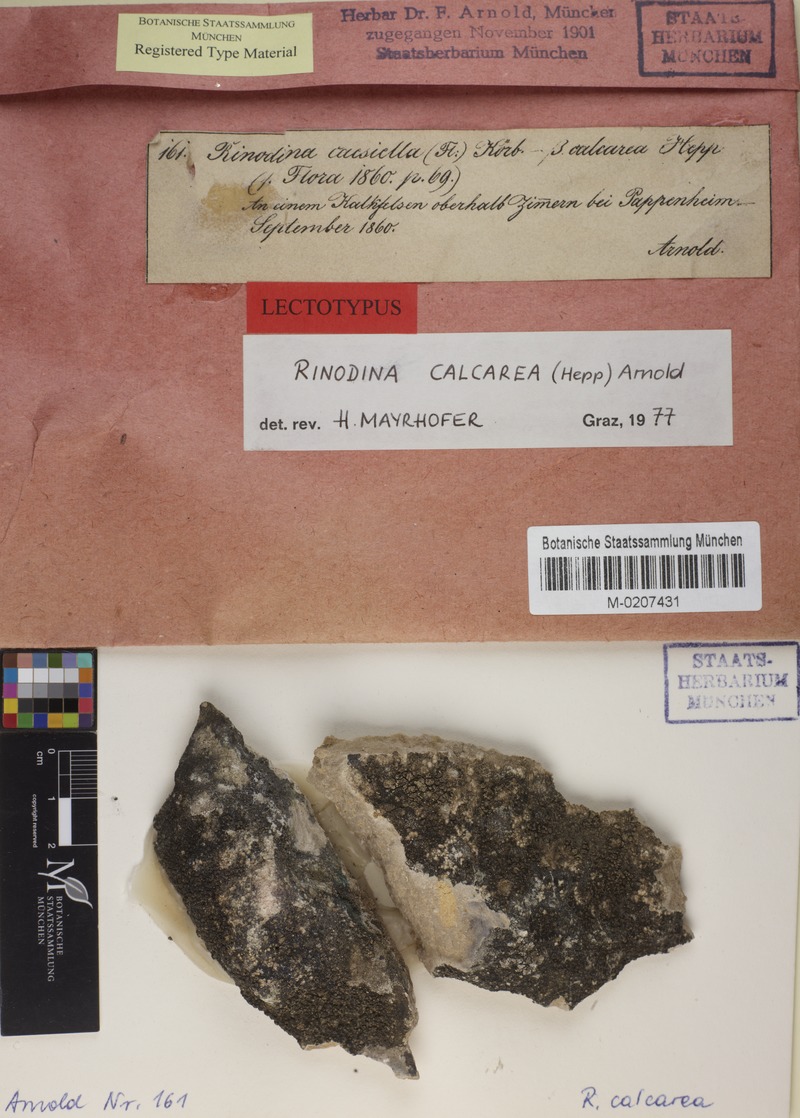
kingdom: Fungi
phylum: Ascomycota
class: Lecanoromycetes
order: Caliciales
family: Physciaceae
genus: Rinodina
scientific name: Rinodina calcarea
